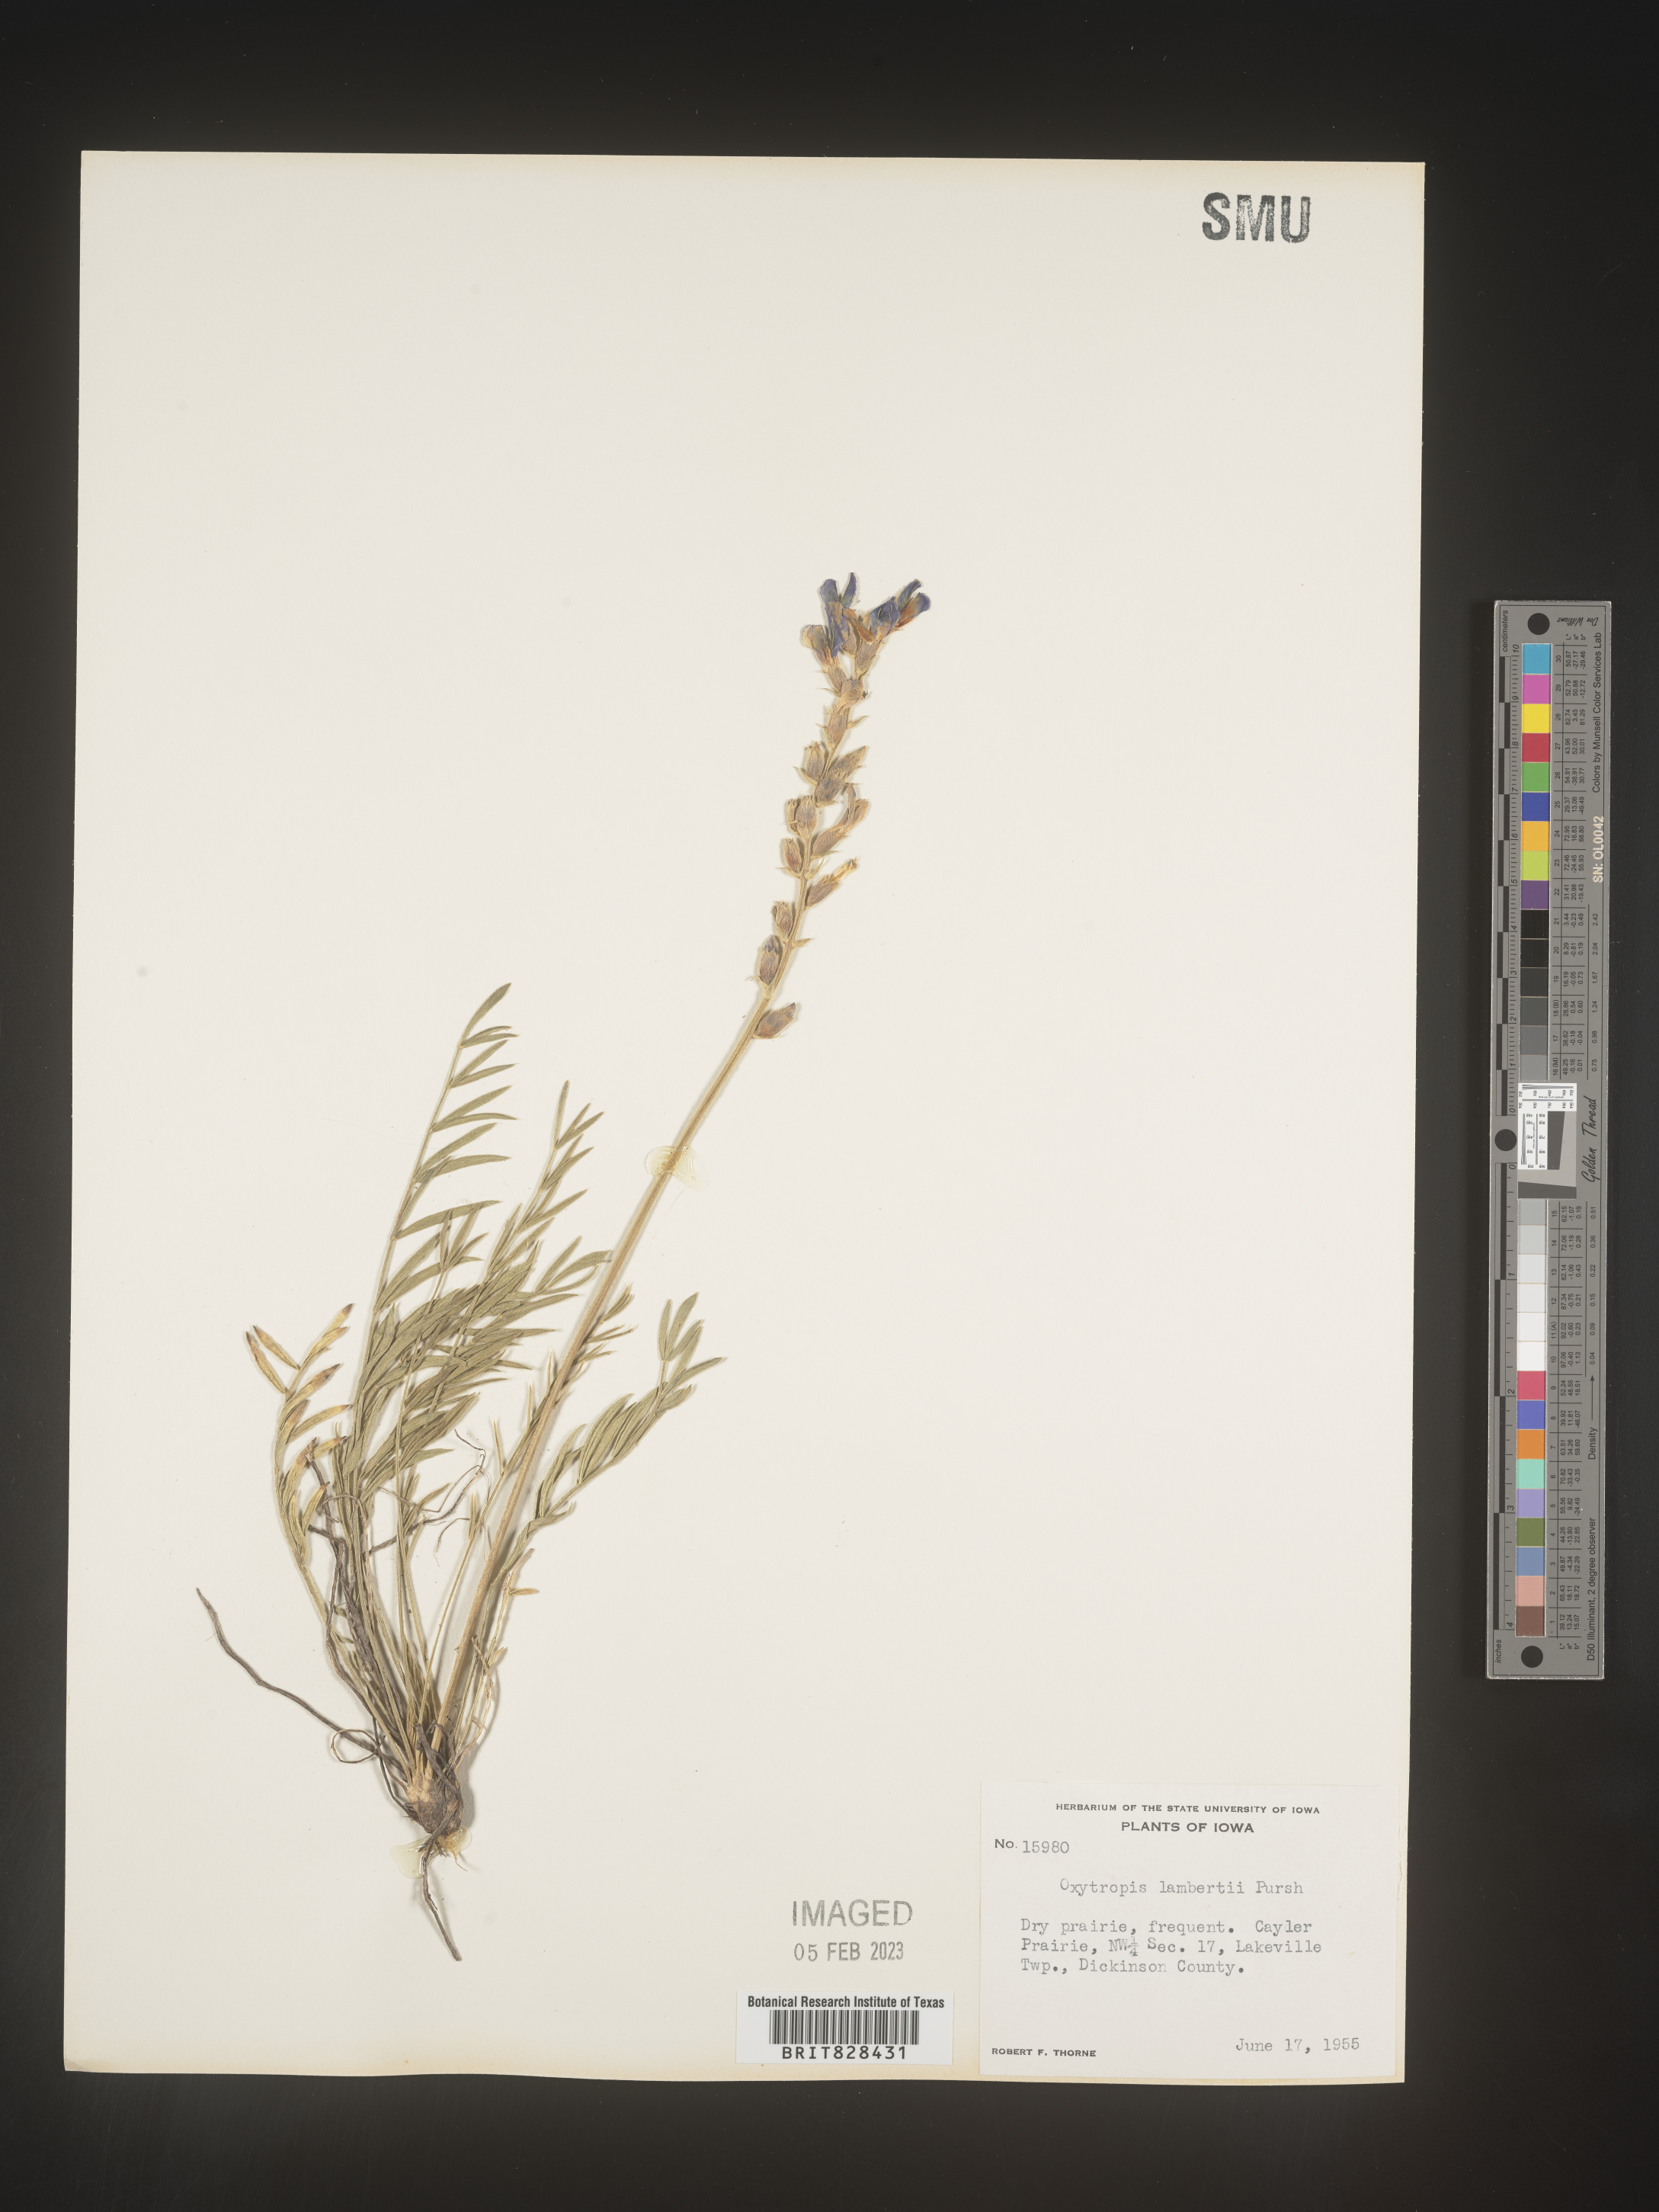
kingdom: Plantae
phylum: Tracheophyta
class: Magnoliopsida
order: Fabales
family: Fabaceae
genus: Oxytropis
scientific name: Oxytropis lambertii
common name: Purple locoweed
